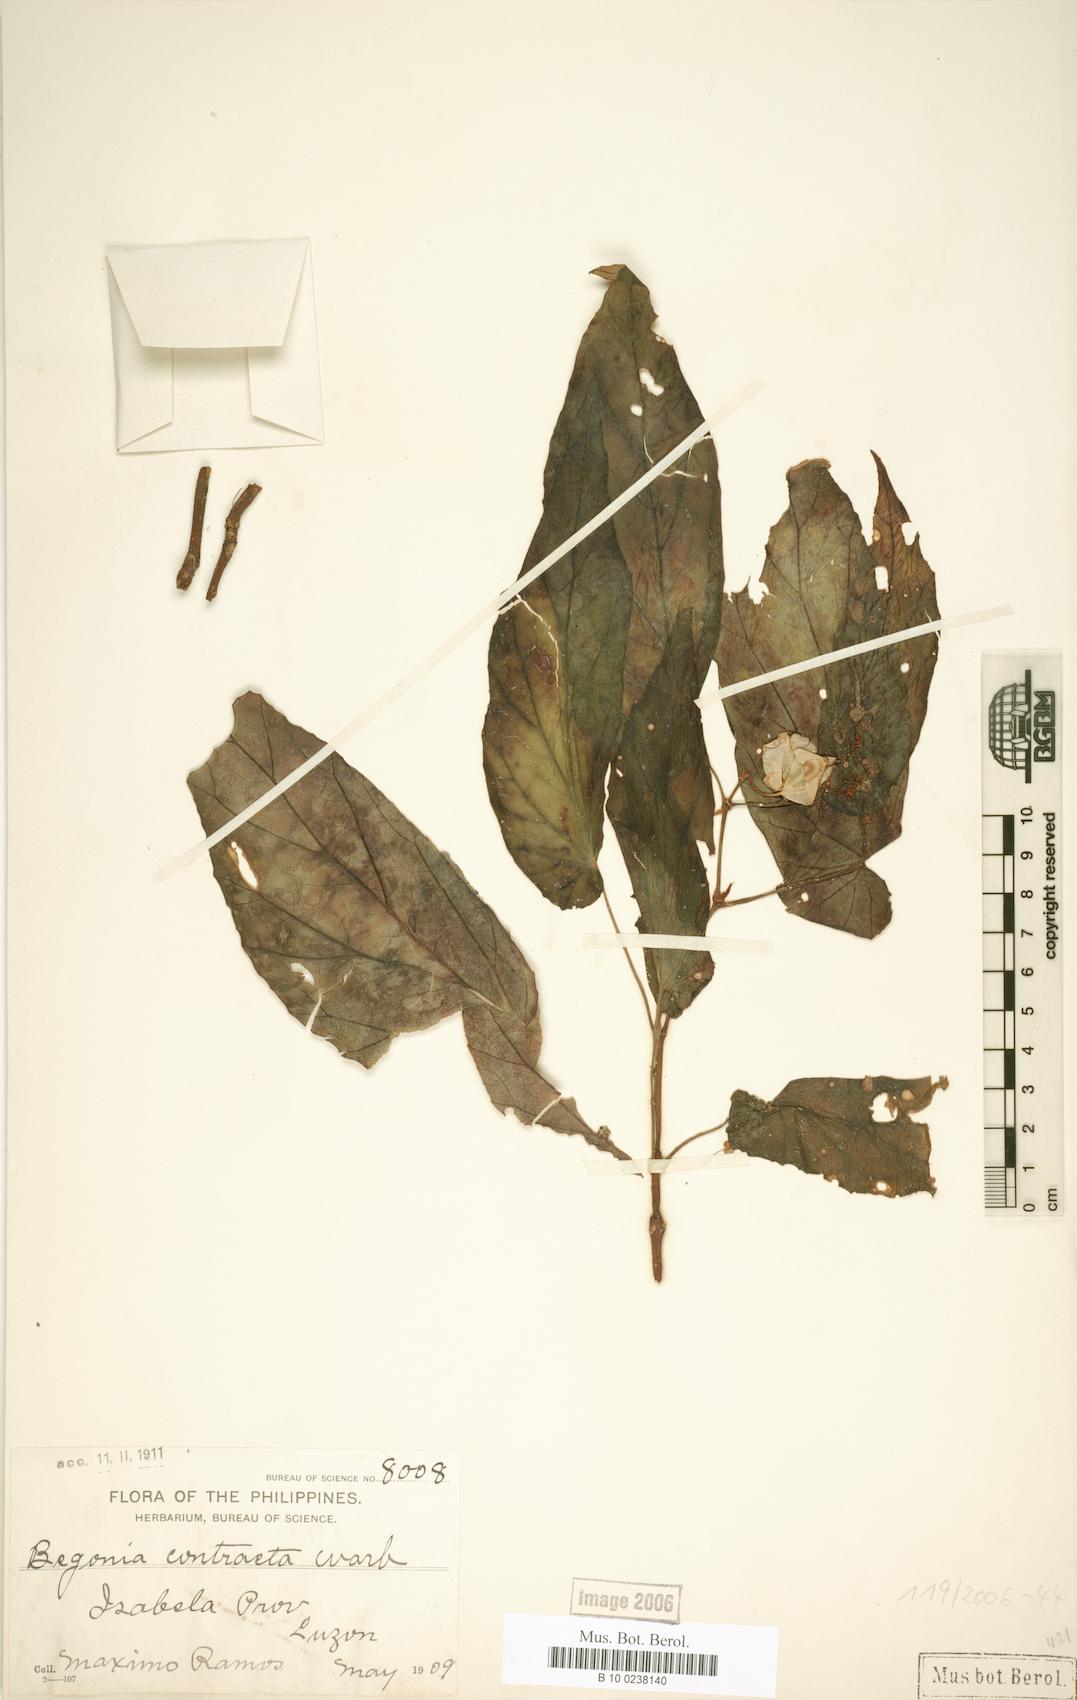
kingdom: Plantae
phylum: Tracheophyta
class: Magnoliopsida
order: Cucurbitales
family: Begoniaceae
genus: Begonia
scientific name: Begonia contracta
